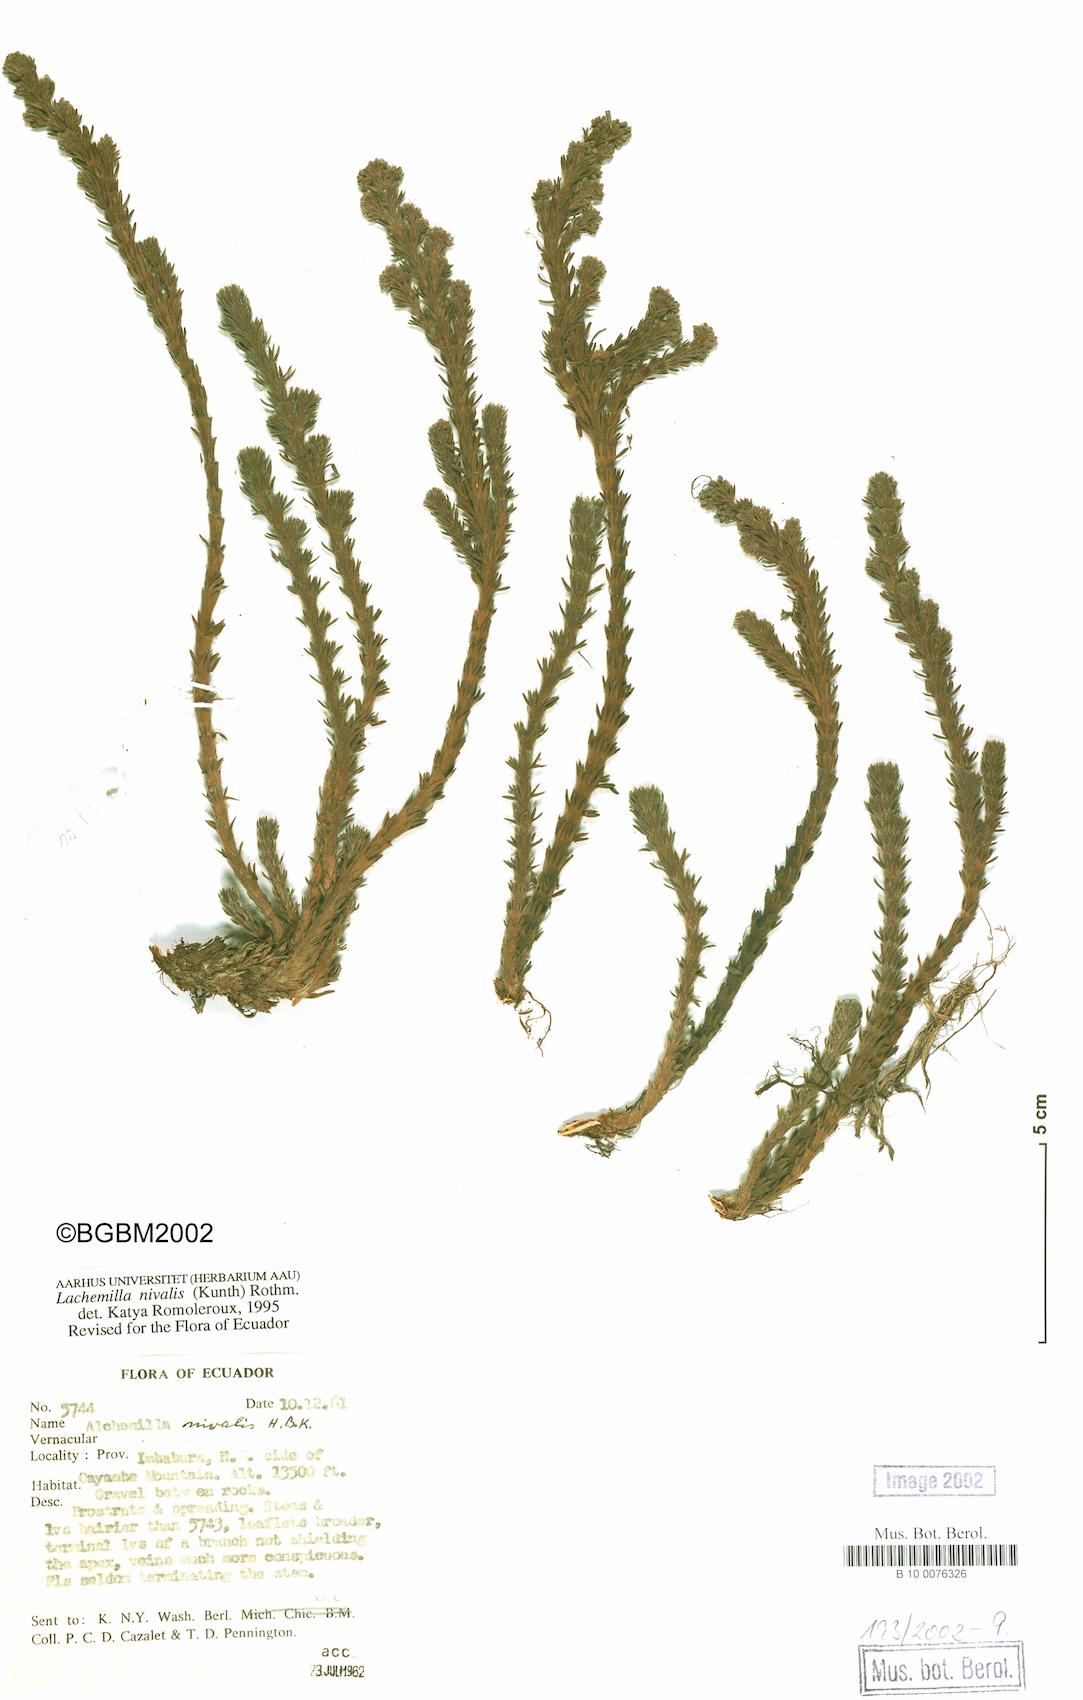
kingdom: Plantae
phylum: Tracheophyta
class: Magnoliopsida
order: Rosales
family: Rosaceae
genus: Lachemilla
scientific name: Lachemilla nivalis
